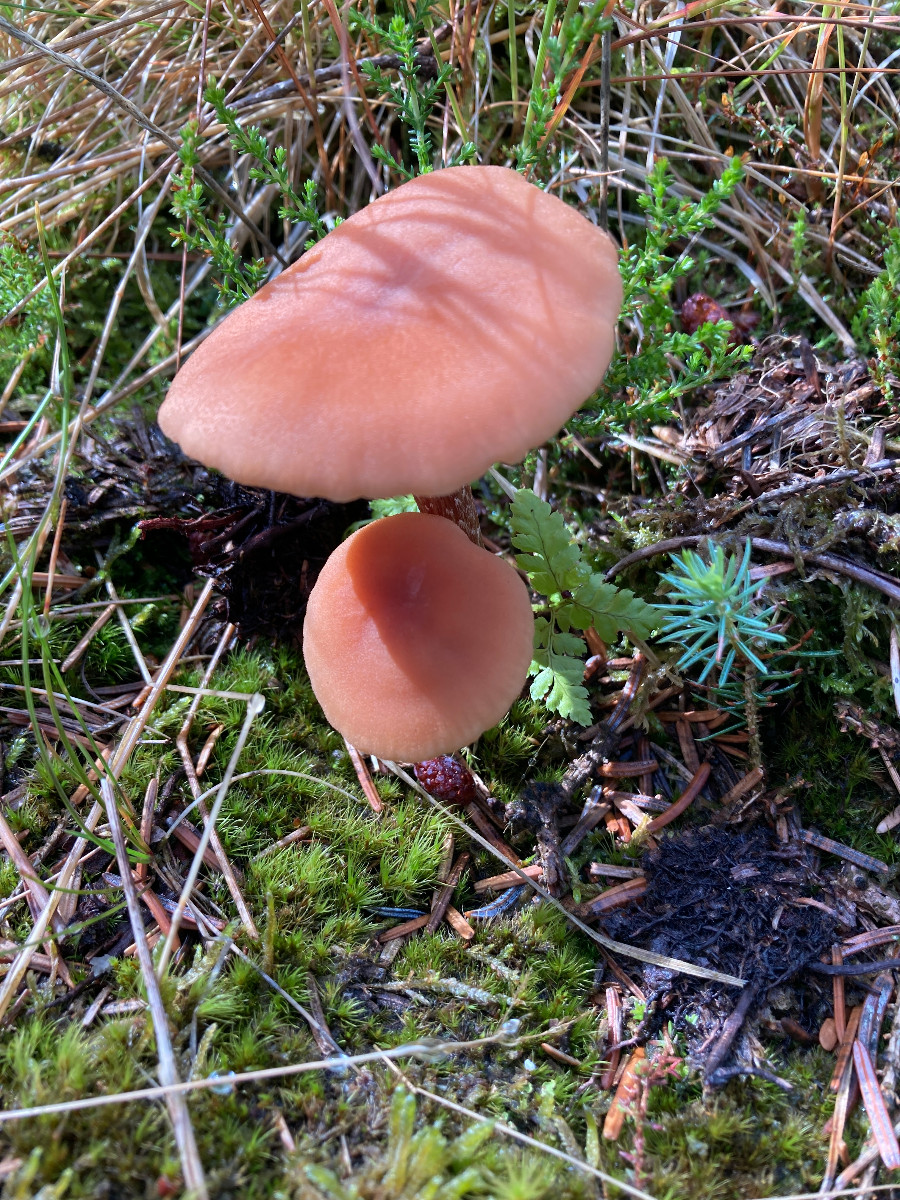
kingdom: Fungi
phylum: Basidiomycota
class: Agaricomycetes
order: Agaricales
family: Hydnangiaceae
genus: Laccaria
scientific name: Laccaria laccata
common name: rød ametysthat
